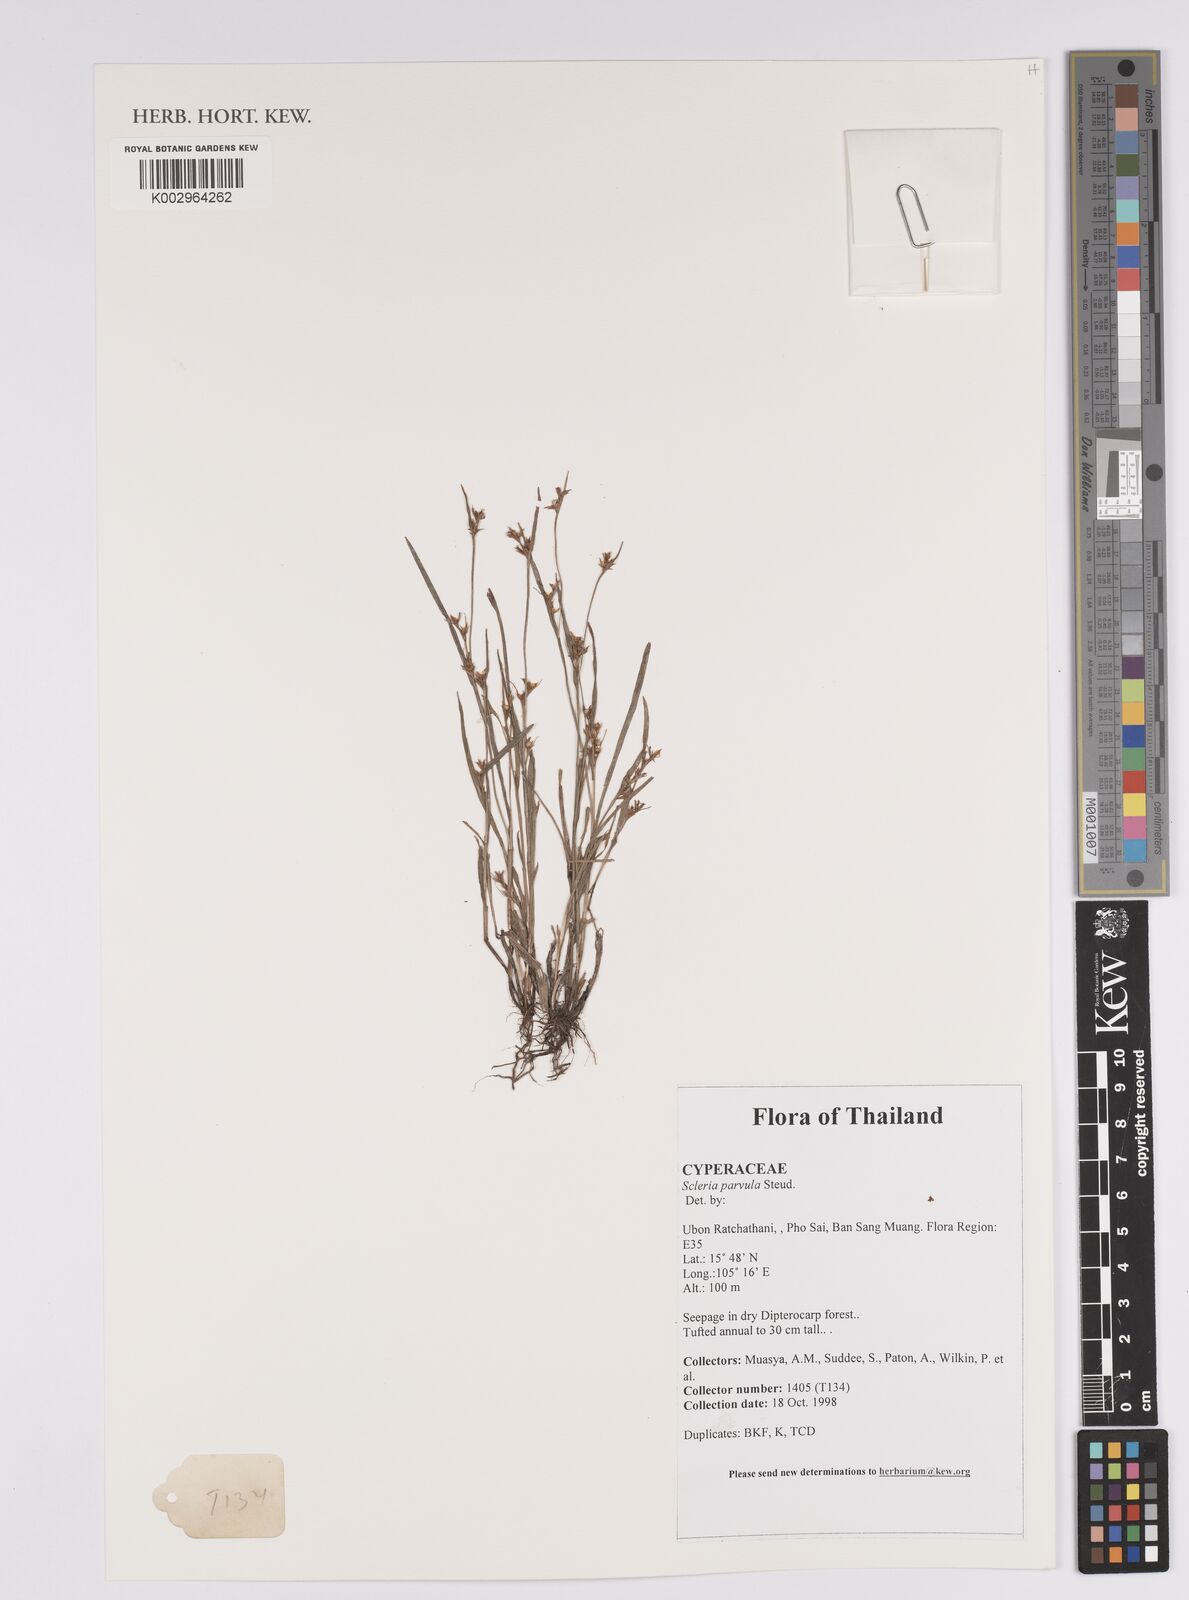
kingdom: Plantae
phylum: Tracheophyta
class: Liliopsida
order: Poales
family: Cyperaceae
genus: Scleria
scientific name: Scleria parvula
